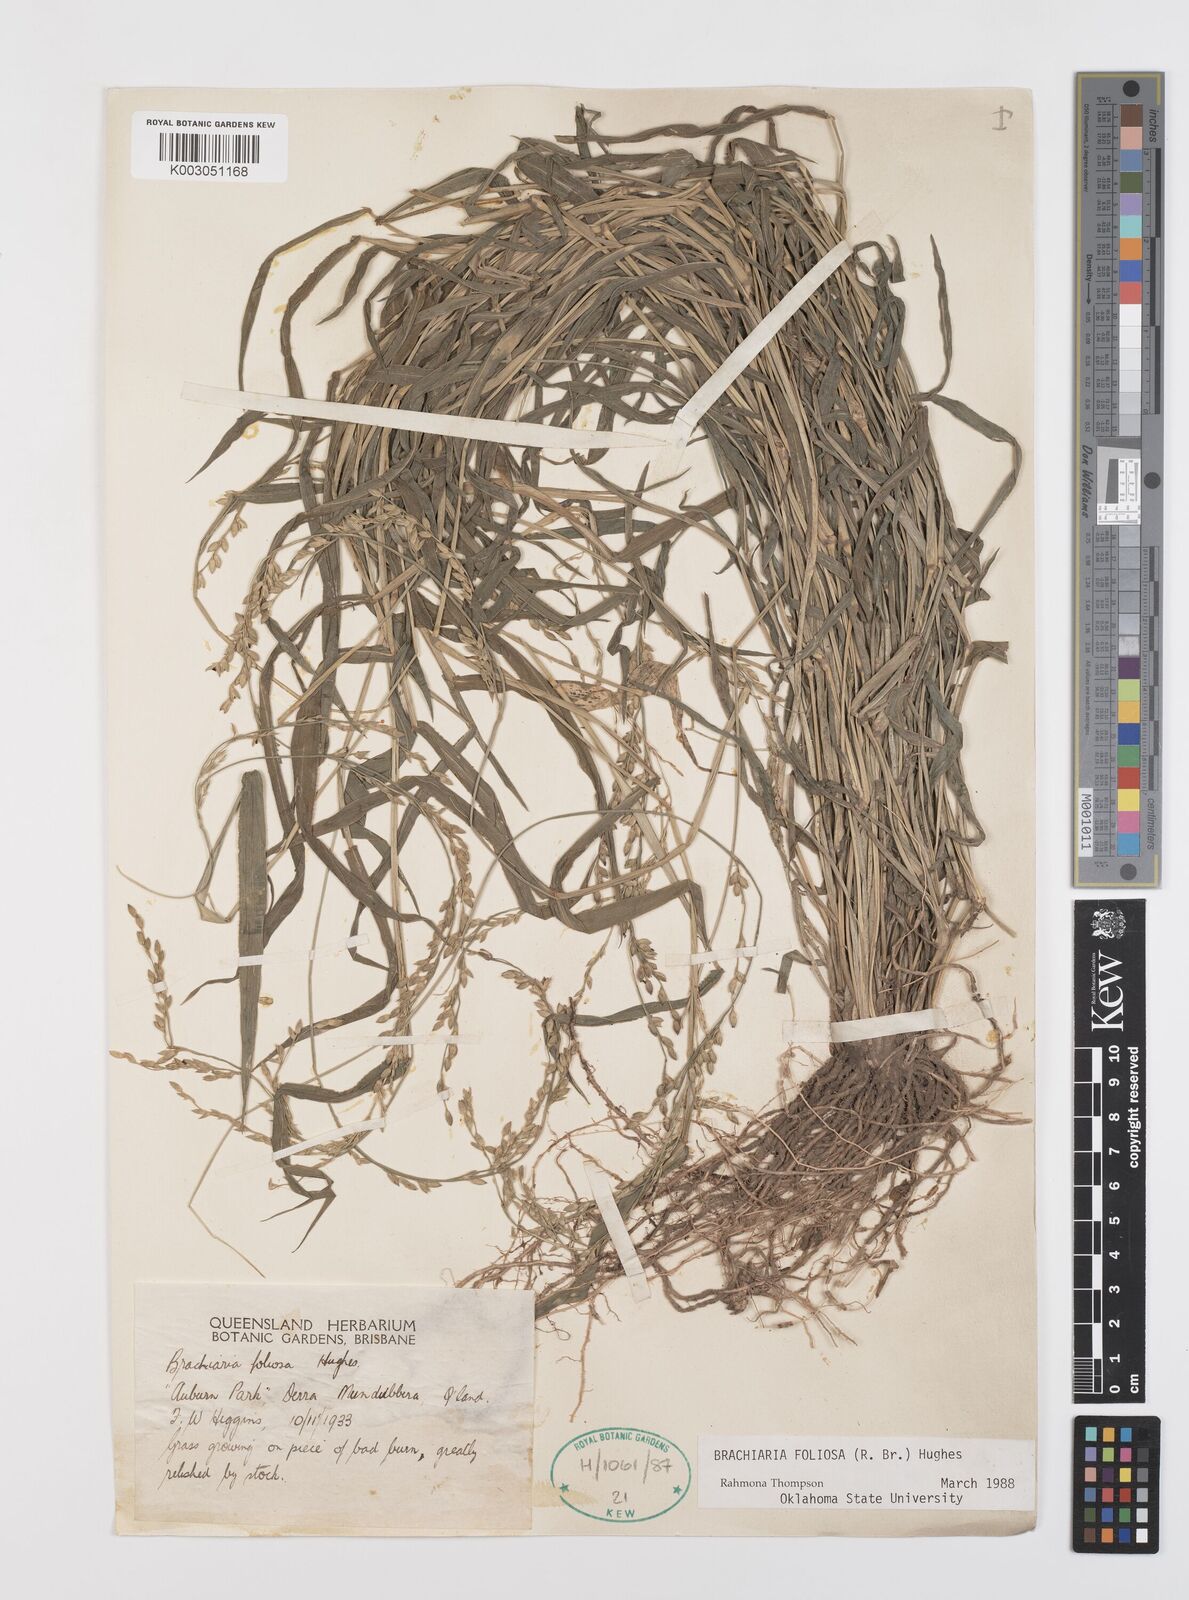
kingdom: Plantae
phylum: Tracheophyta
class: Liliopsida
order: Poales
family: Poaceae
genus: Urochloa
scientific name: Urochloa foliosa
